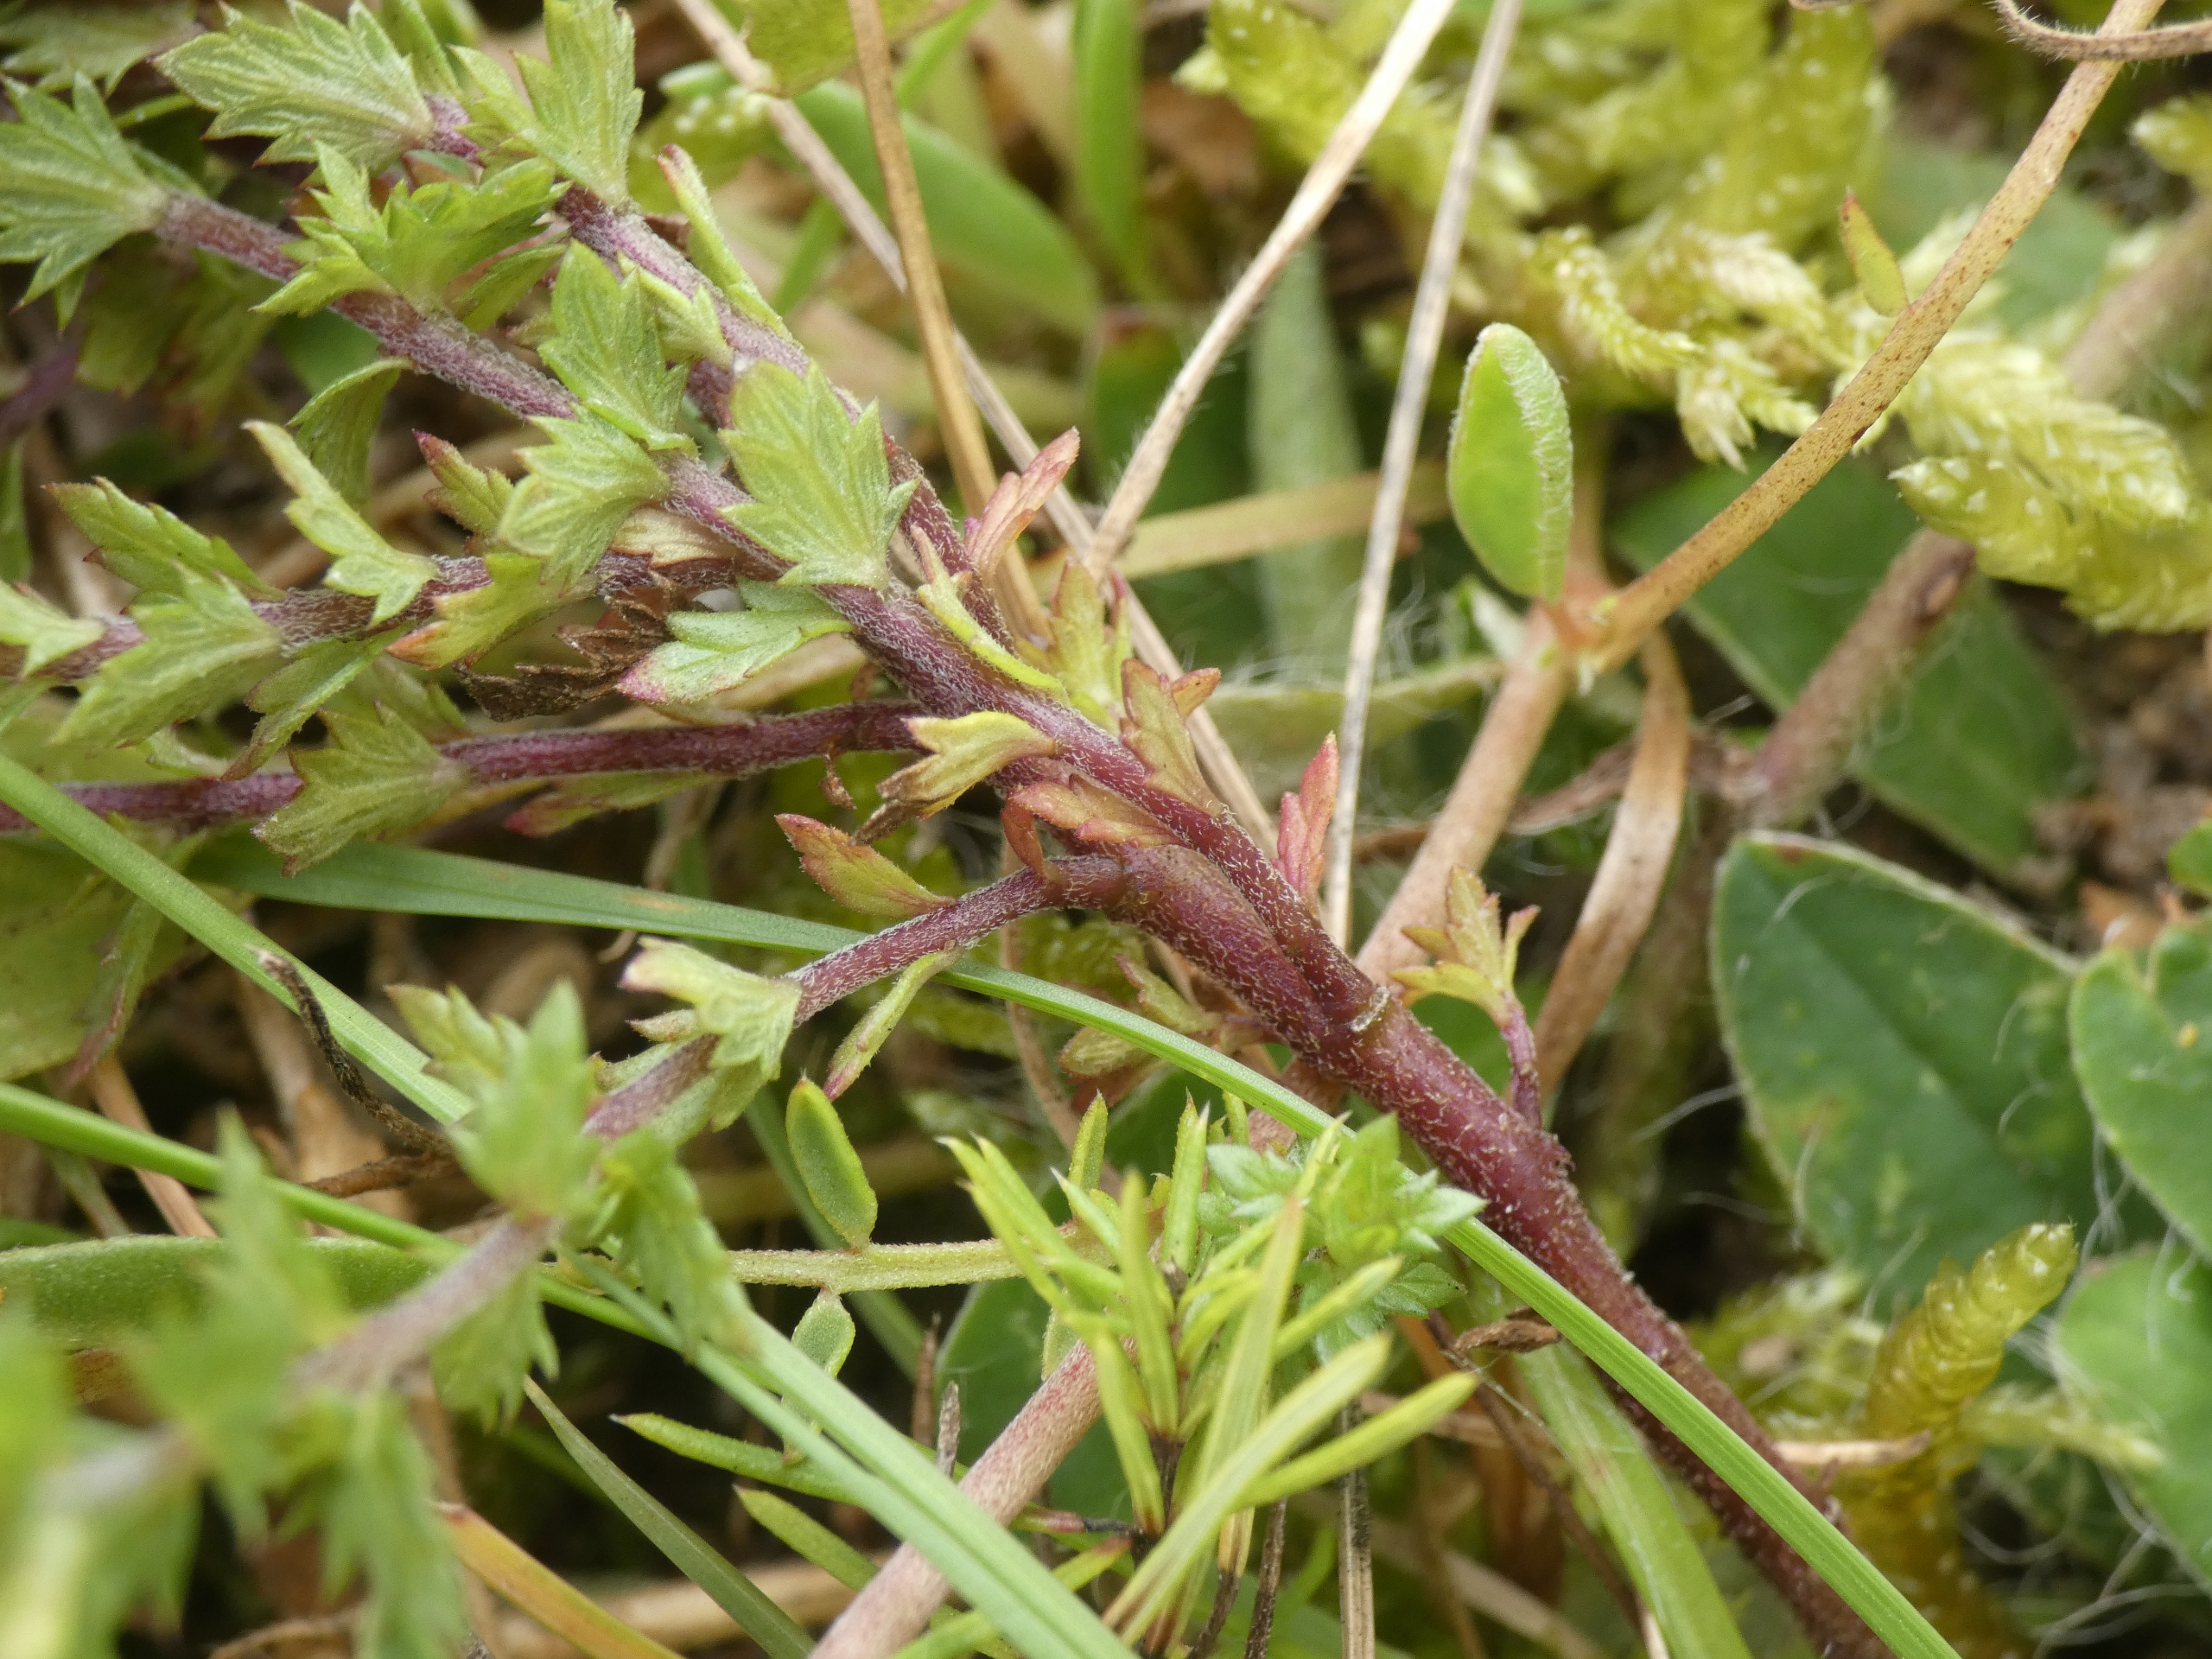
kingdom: Plantae
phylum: Tracheophyta
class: Magnoliopsida
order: Lamiales
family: Orobanchaceae
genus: Euphrasia
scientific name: Euphrasia stricta
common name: Spids øjentrøst
